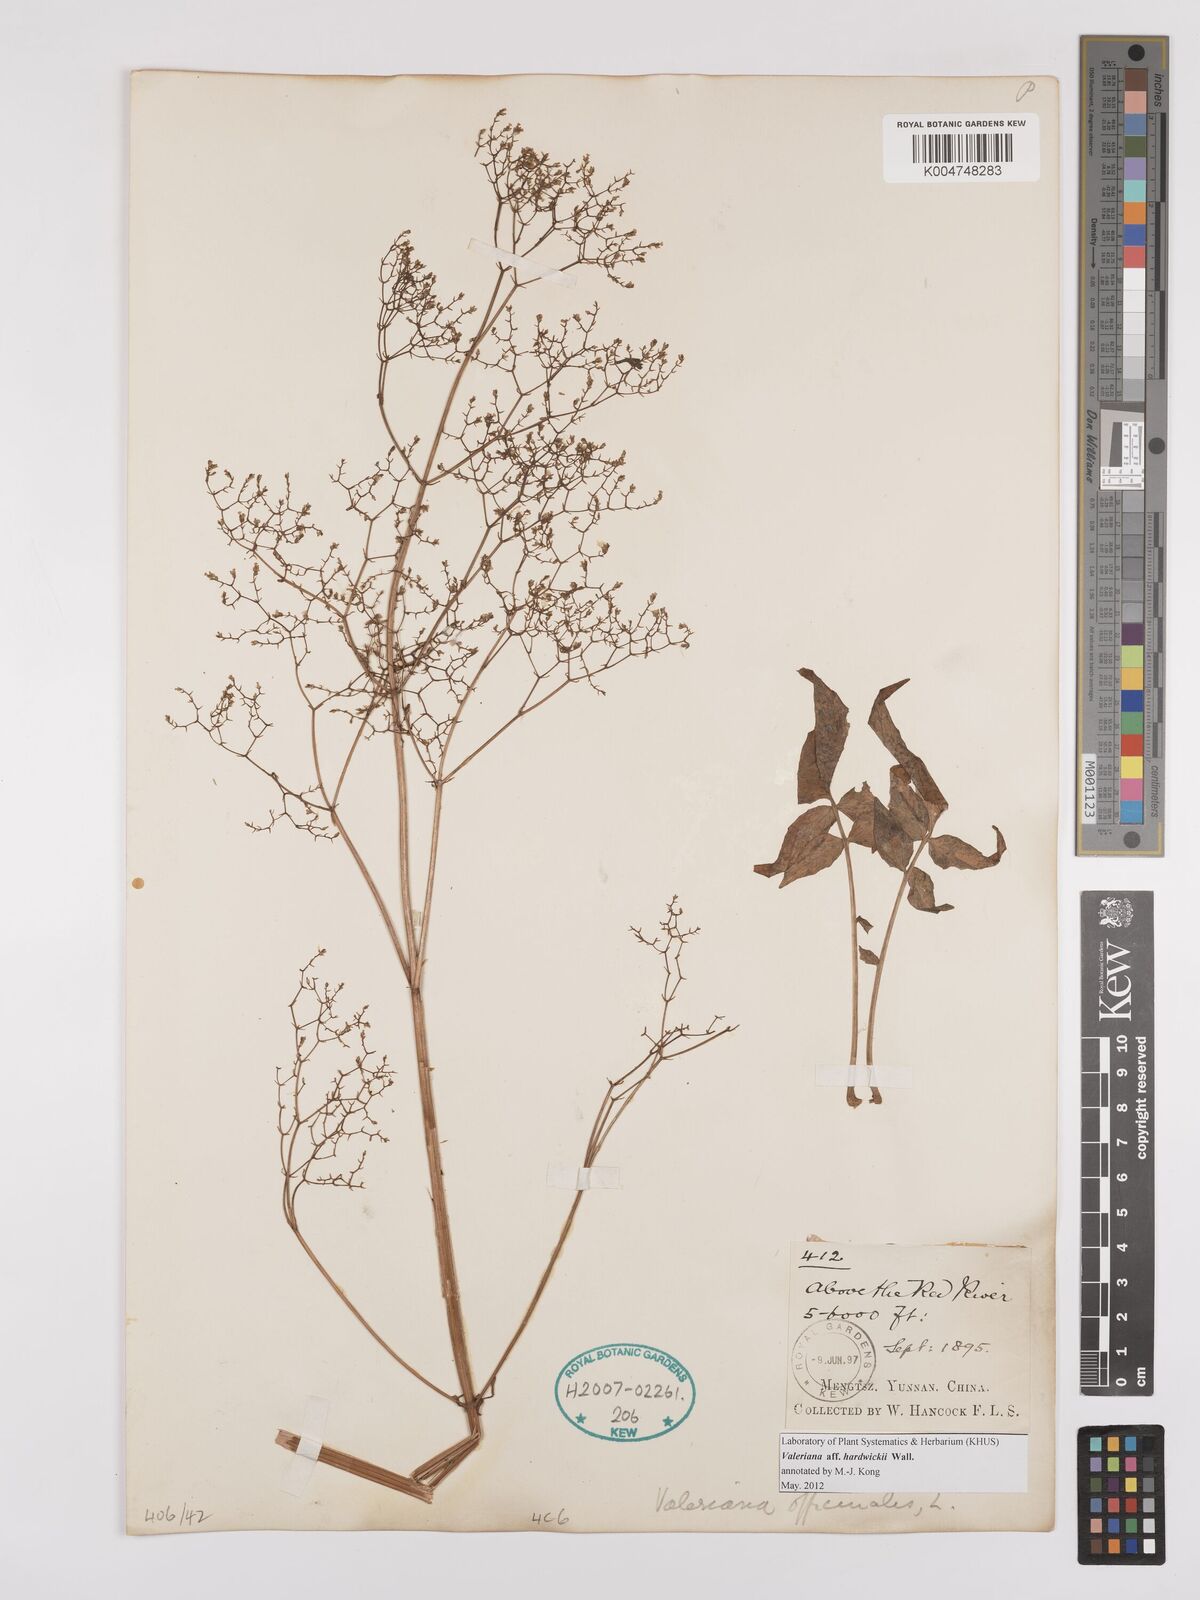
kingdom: Plantae
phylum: Tracheophyta
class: Magnoliopsida
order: Dipsacales
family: Caprifoliaceae
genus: Valeriana
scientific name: Valeriana hardwickei
